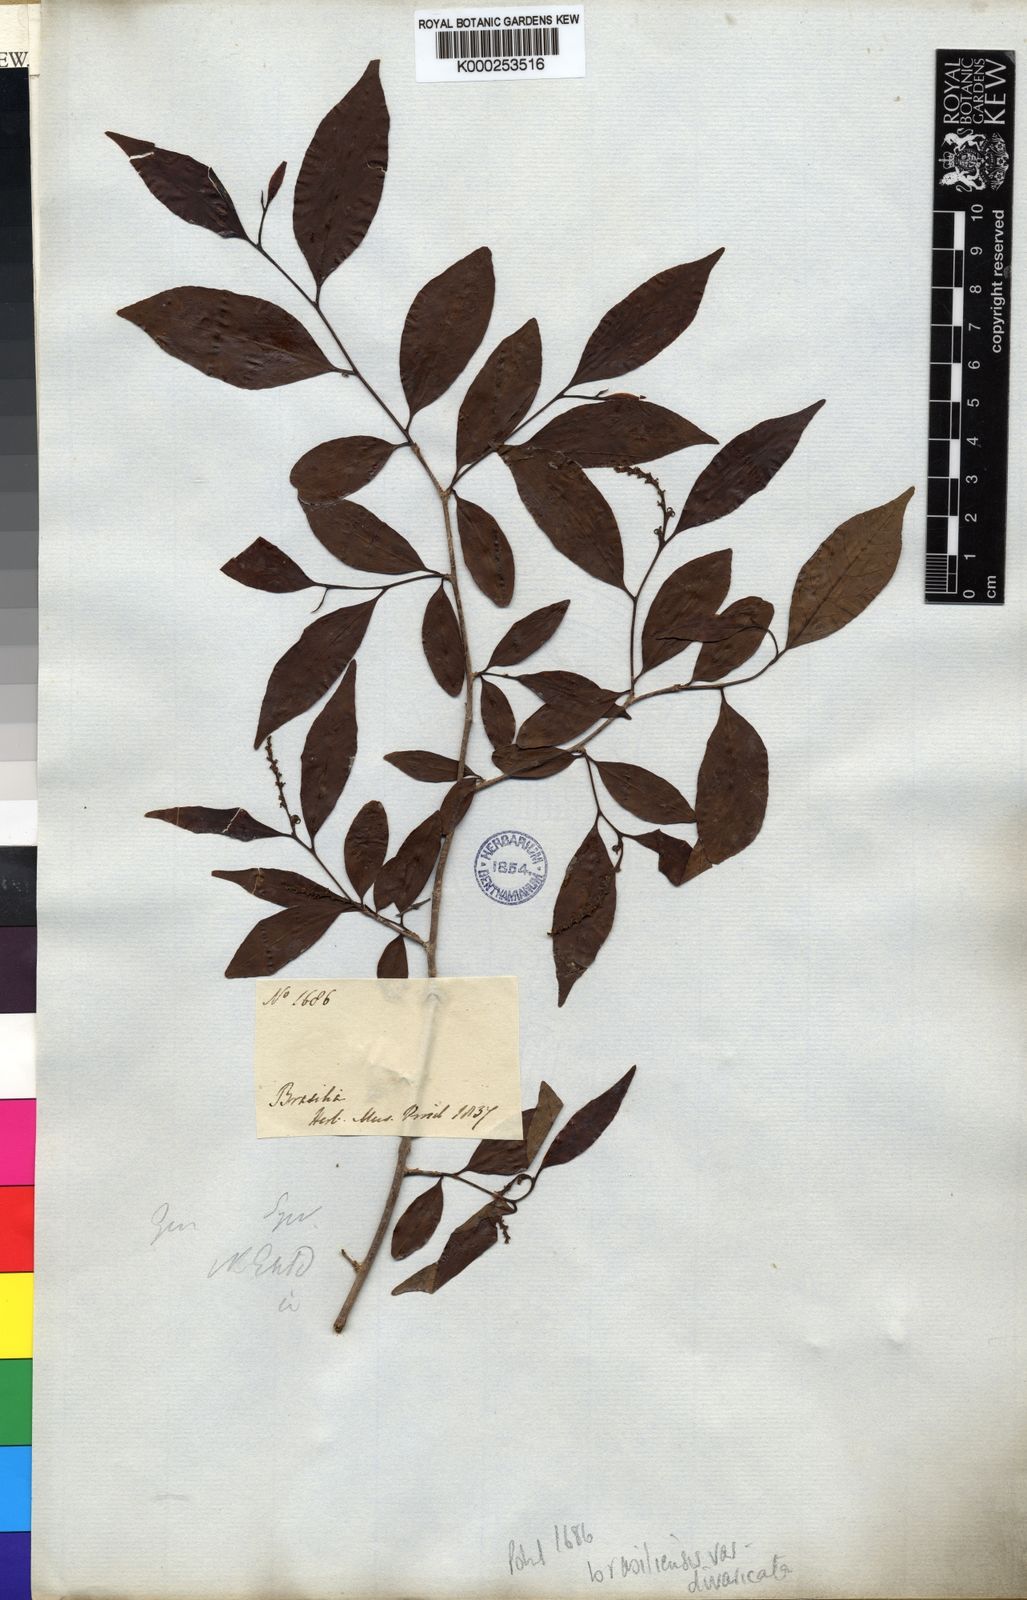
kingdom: Plantae
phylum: Tracheophyta
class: Magnoliopsida
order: Malpighiales
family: Euphorbiaceae
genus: Sebastiania
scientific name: Sebastiania brasiliensis
